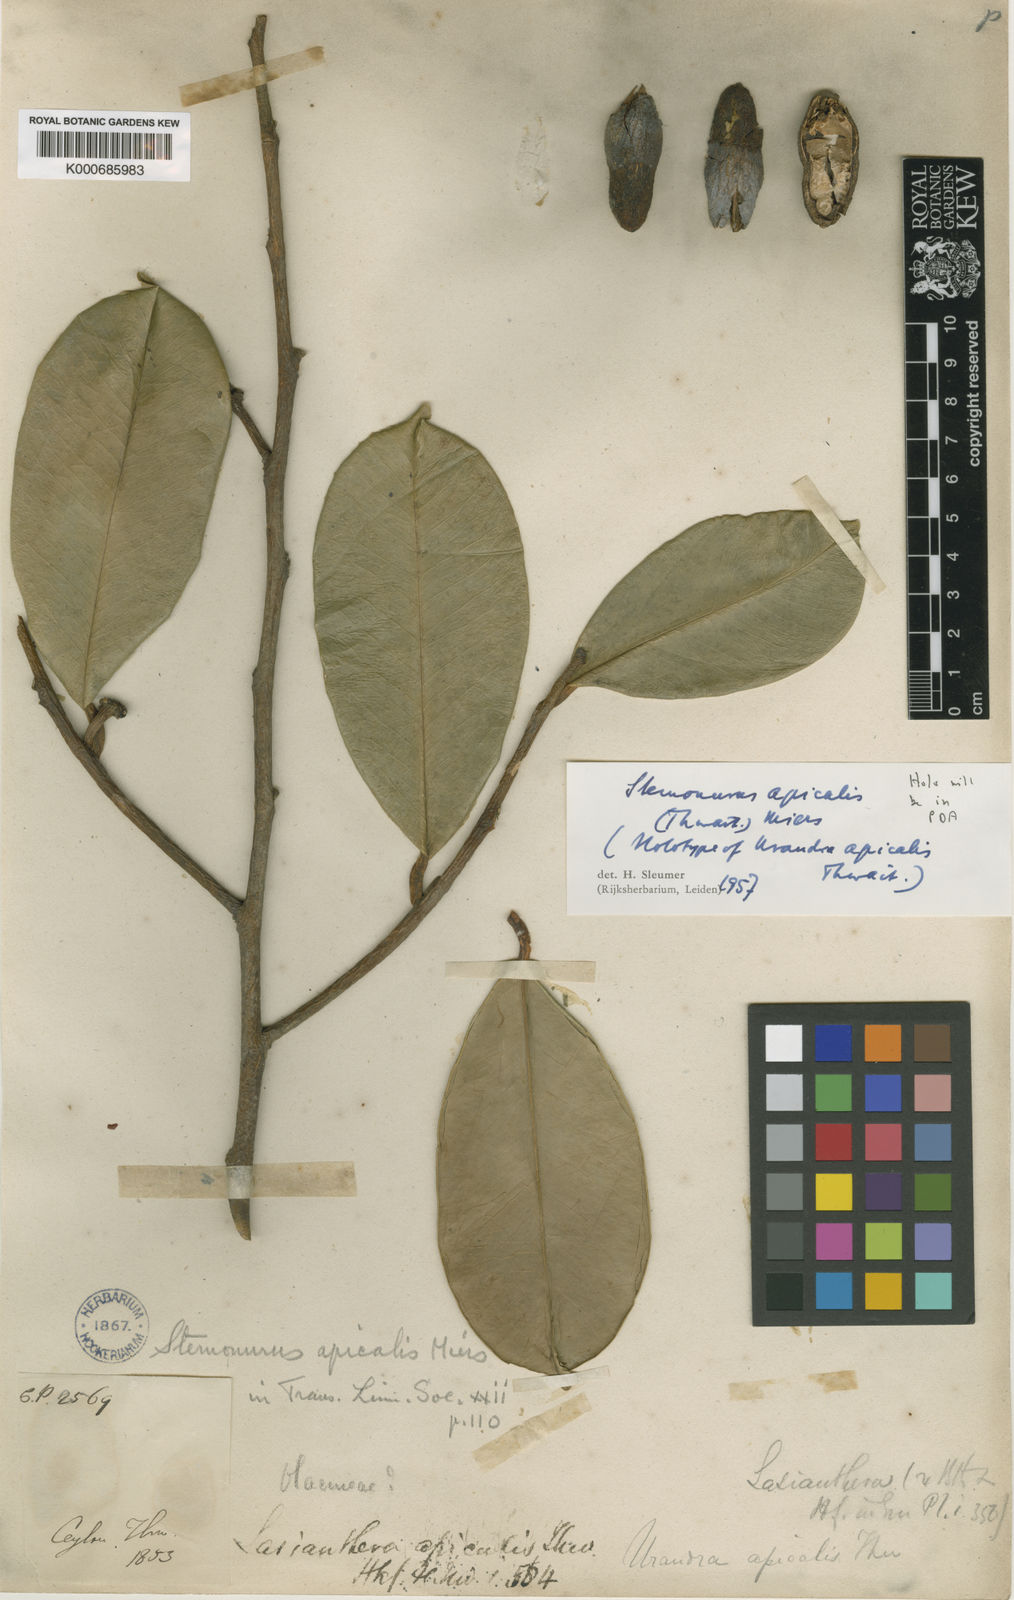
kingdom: Plantae
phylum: Tracheophyta
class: Magnoliopsida
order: Cardiopteridales
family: Stemonuraceae
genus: Stemonurus
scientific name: Stemonurus apicalis
